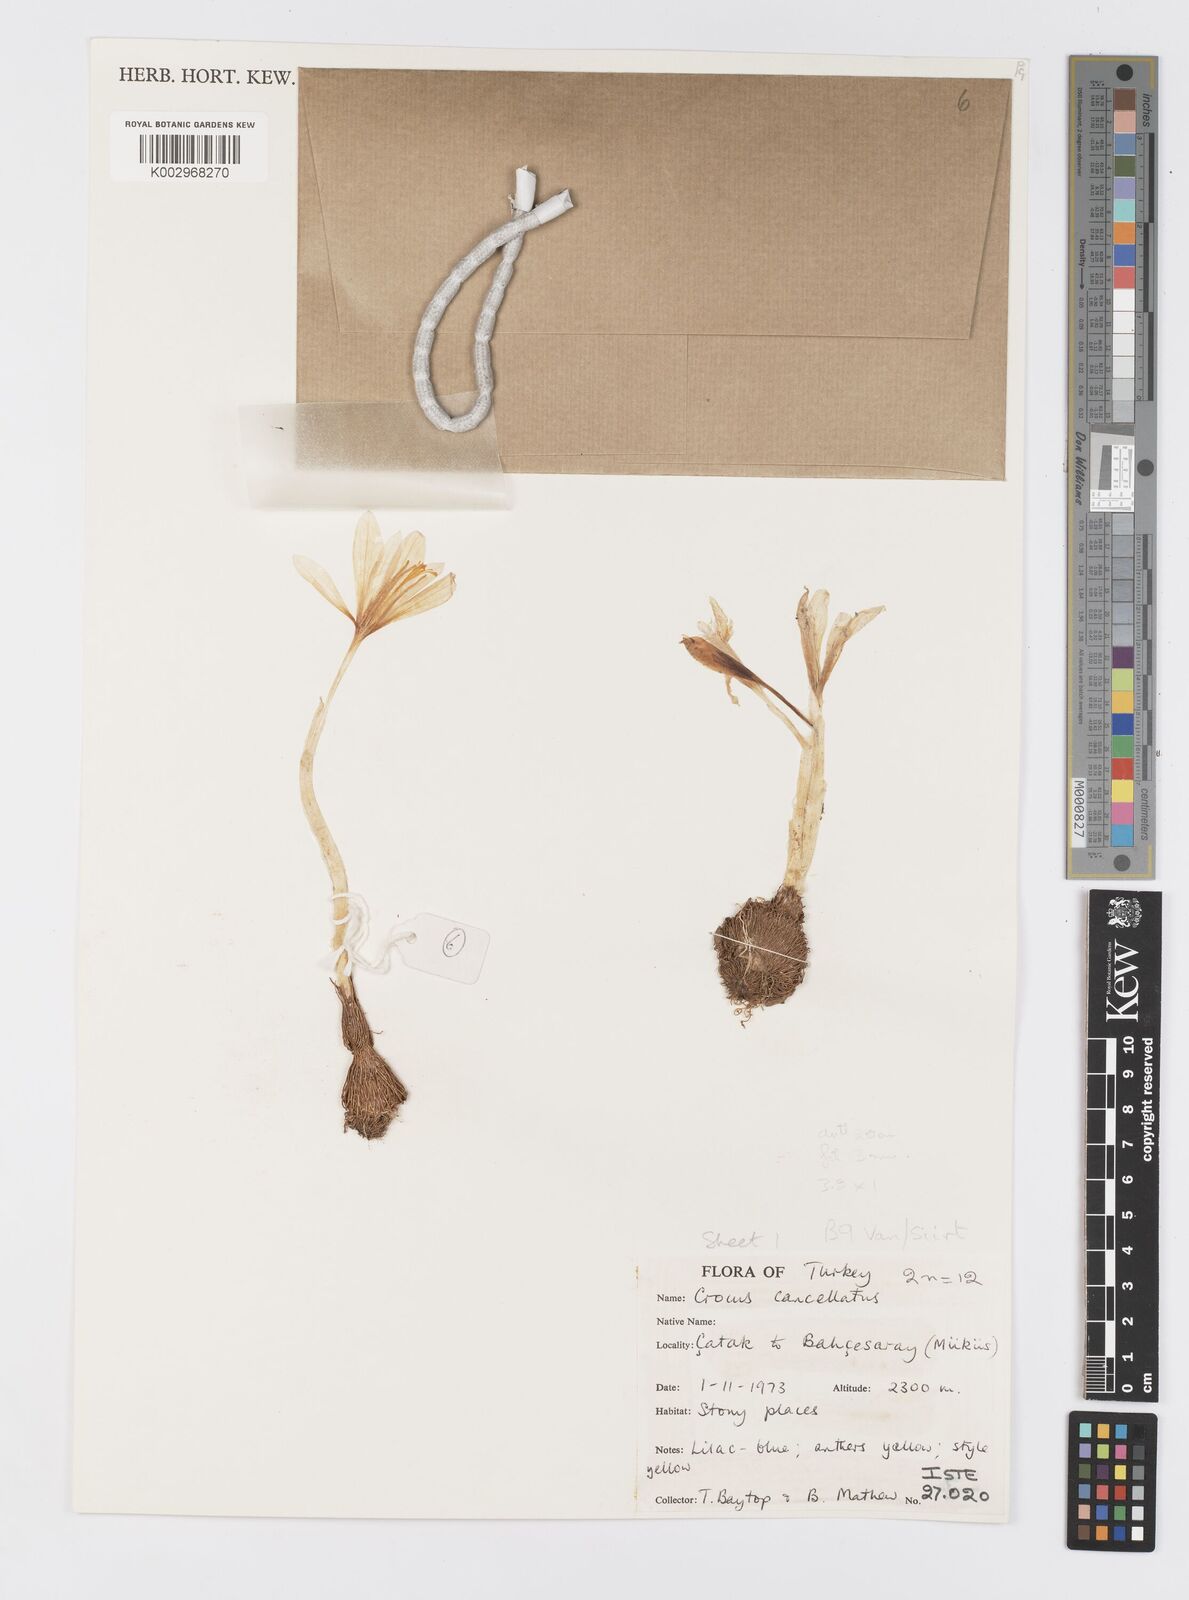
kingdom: Plantae
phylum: Tracheophyta
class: Liliopsida
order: Asparagales
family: Iridaceae
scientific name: Iridaceae
